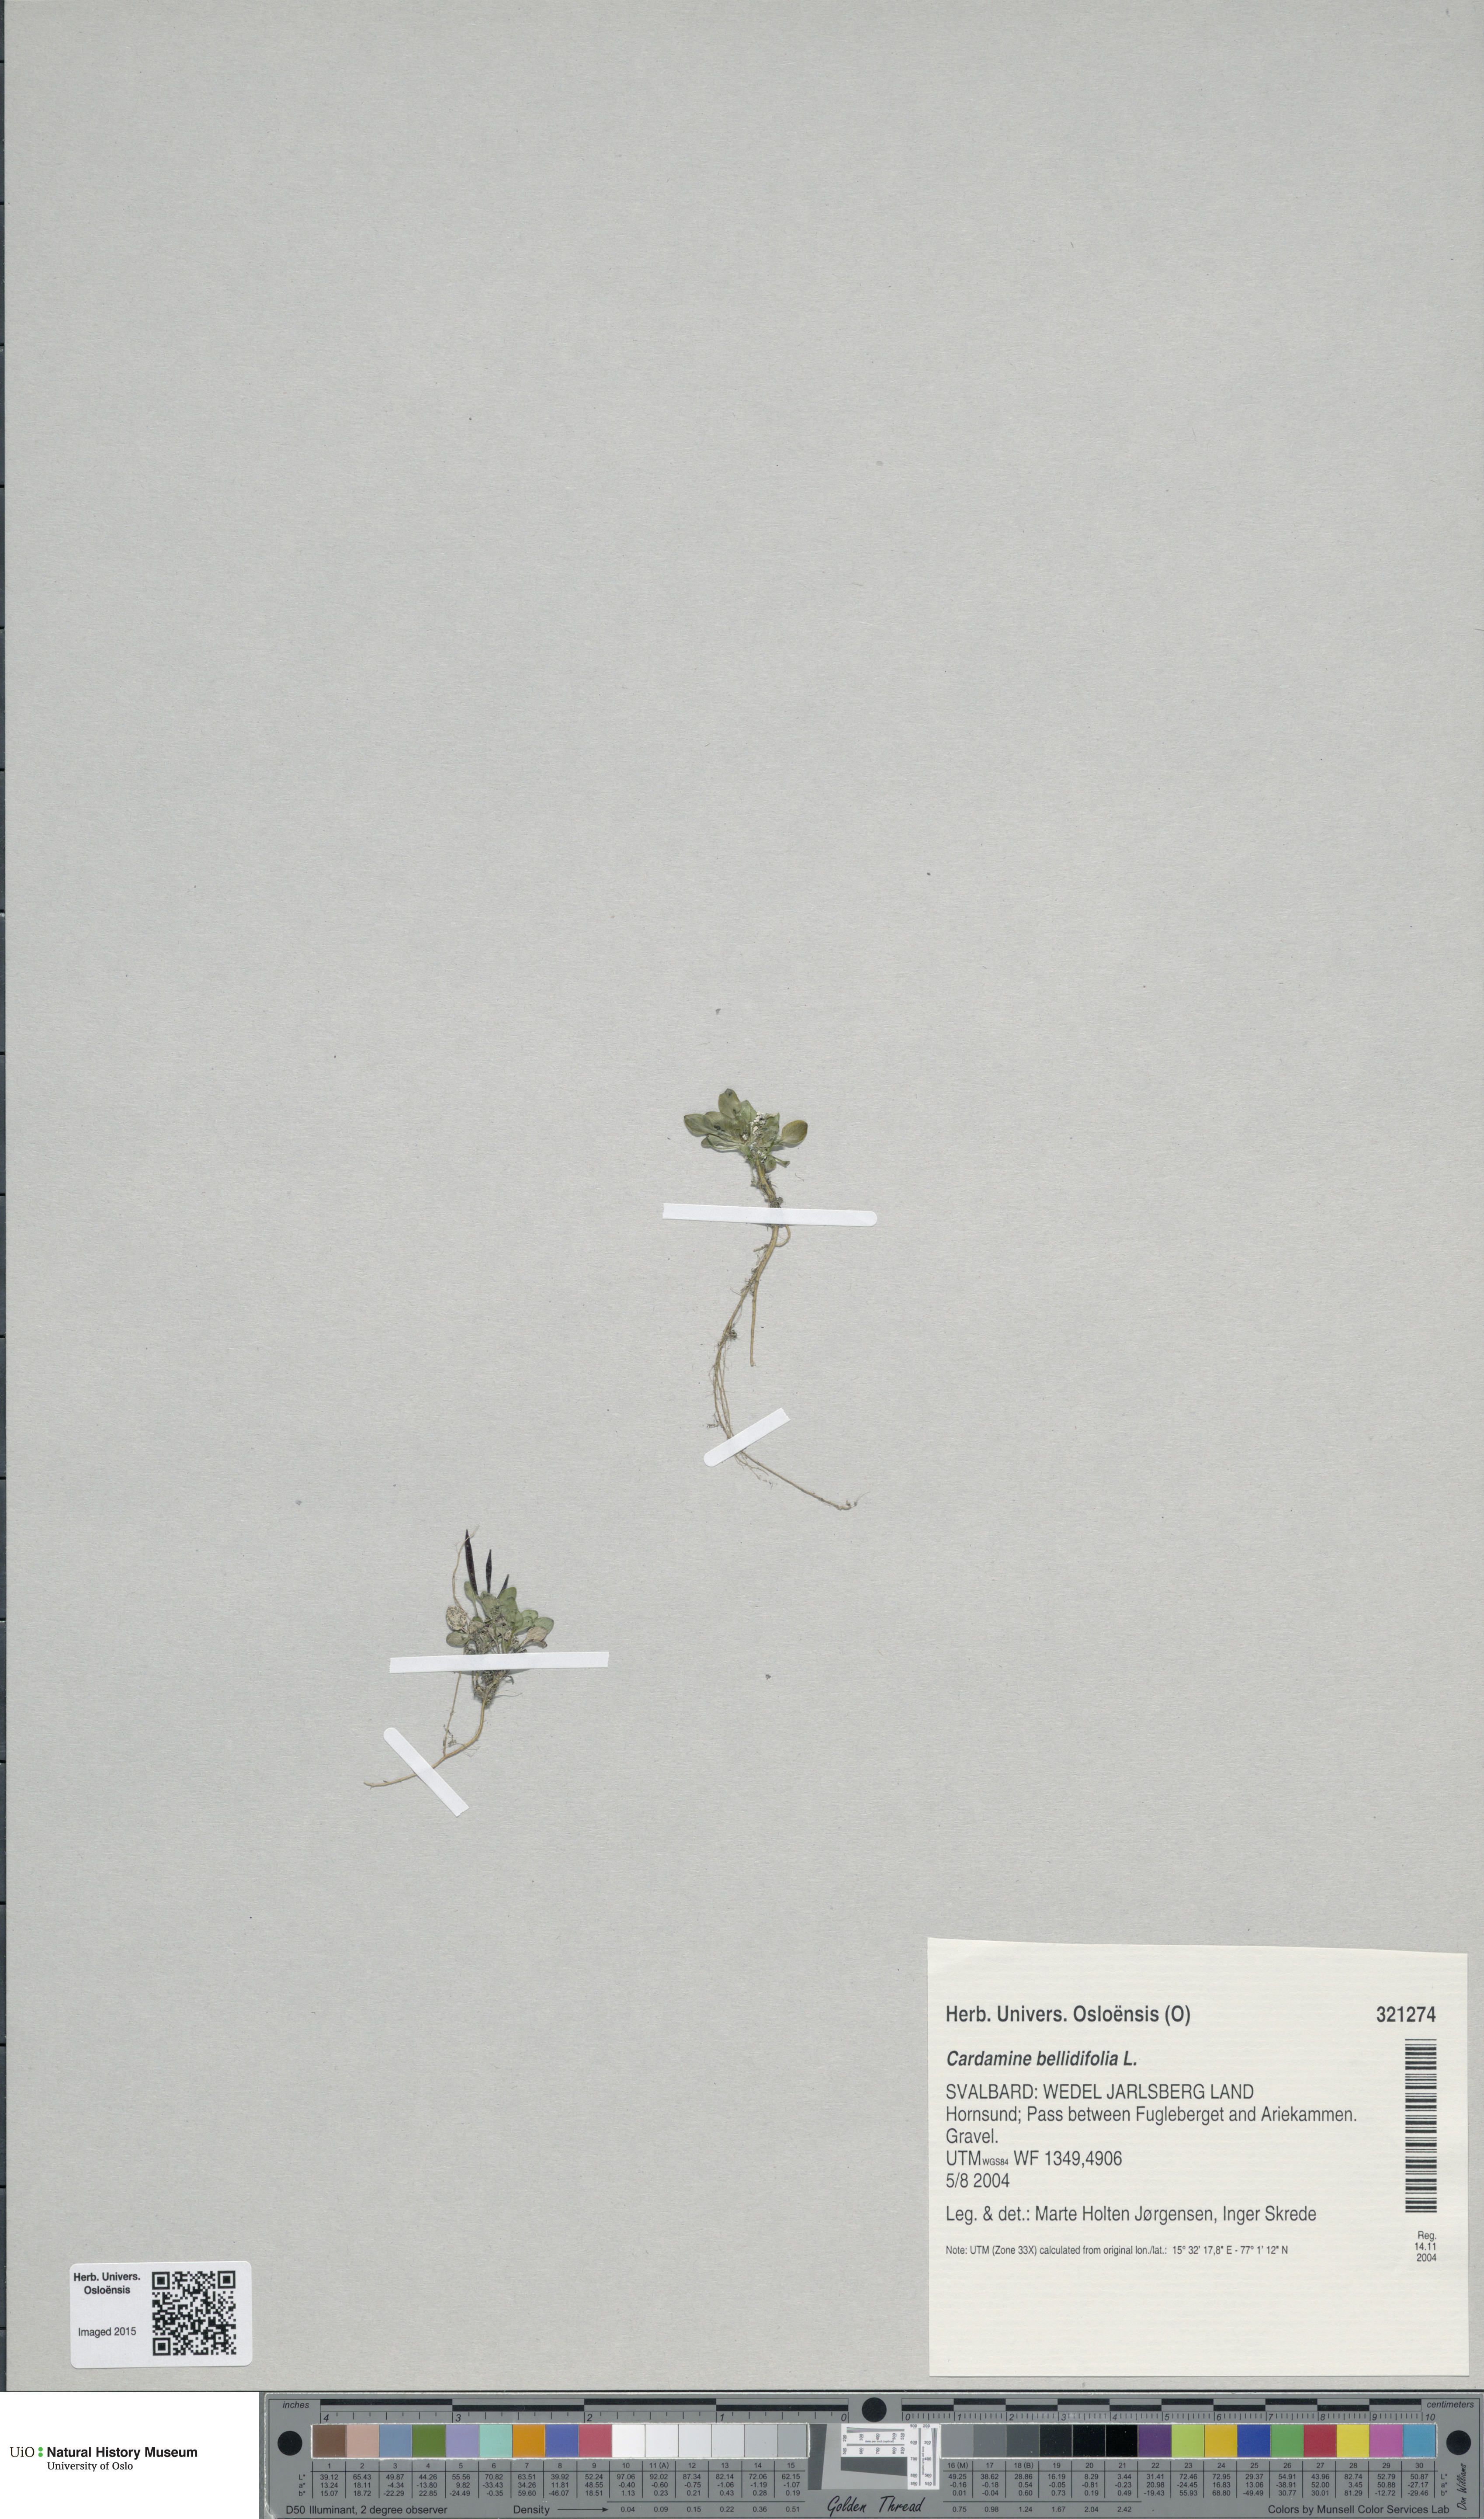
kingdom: Plantae
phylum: Tracheophyta
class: Magnoliopsida
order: Brassicales
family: Brassicaceae
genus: Cardamine
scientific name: Cardamine bellidifolia
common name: Alpine bittercress
